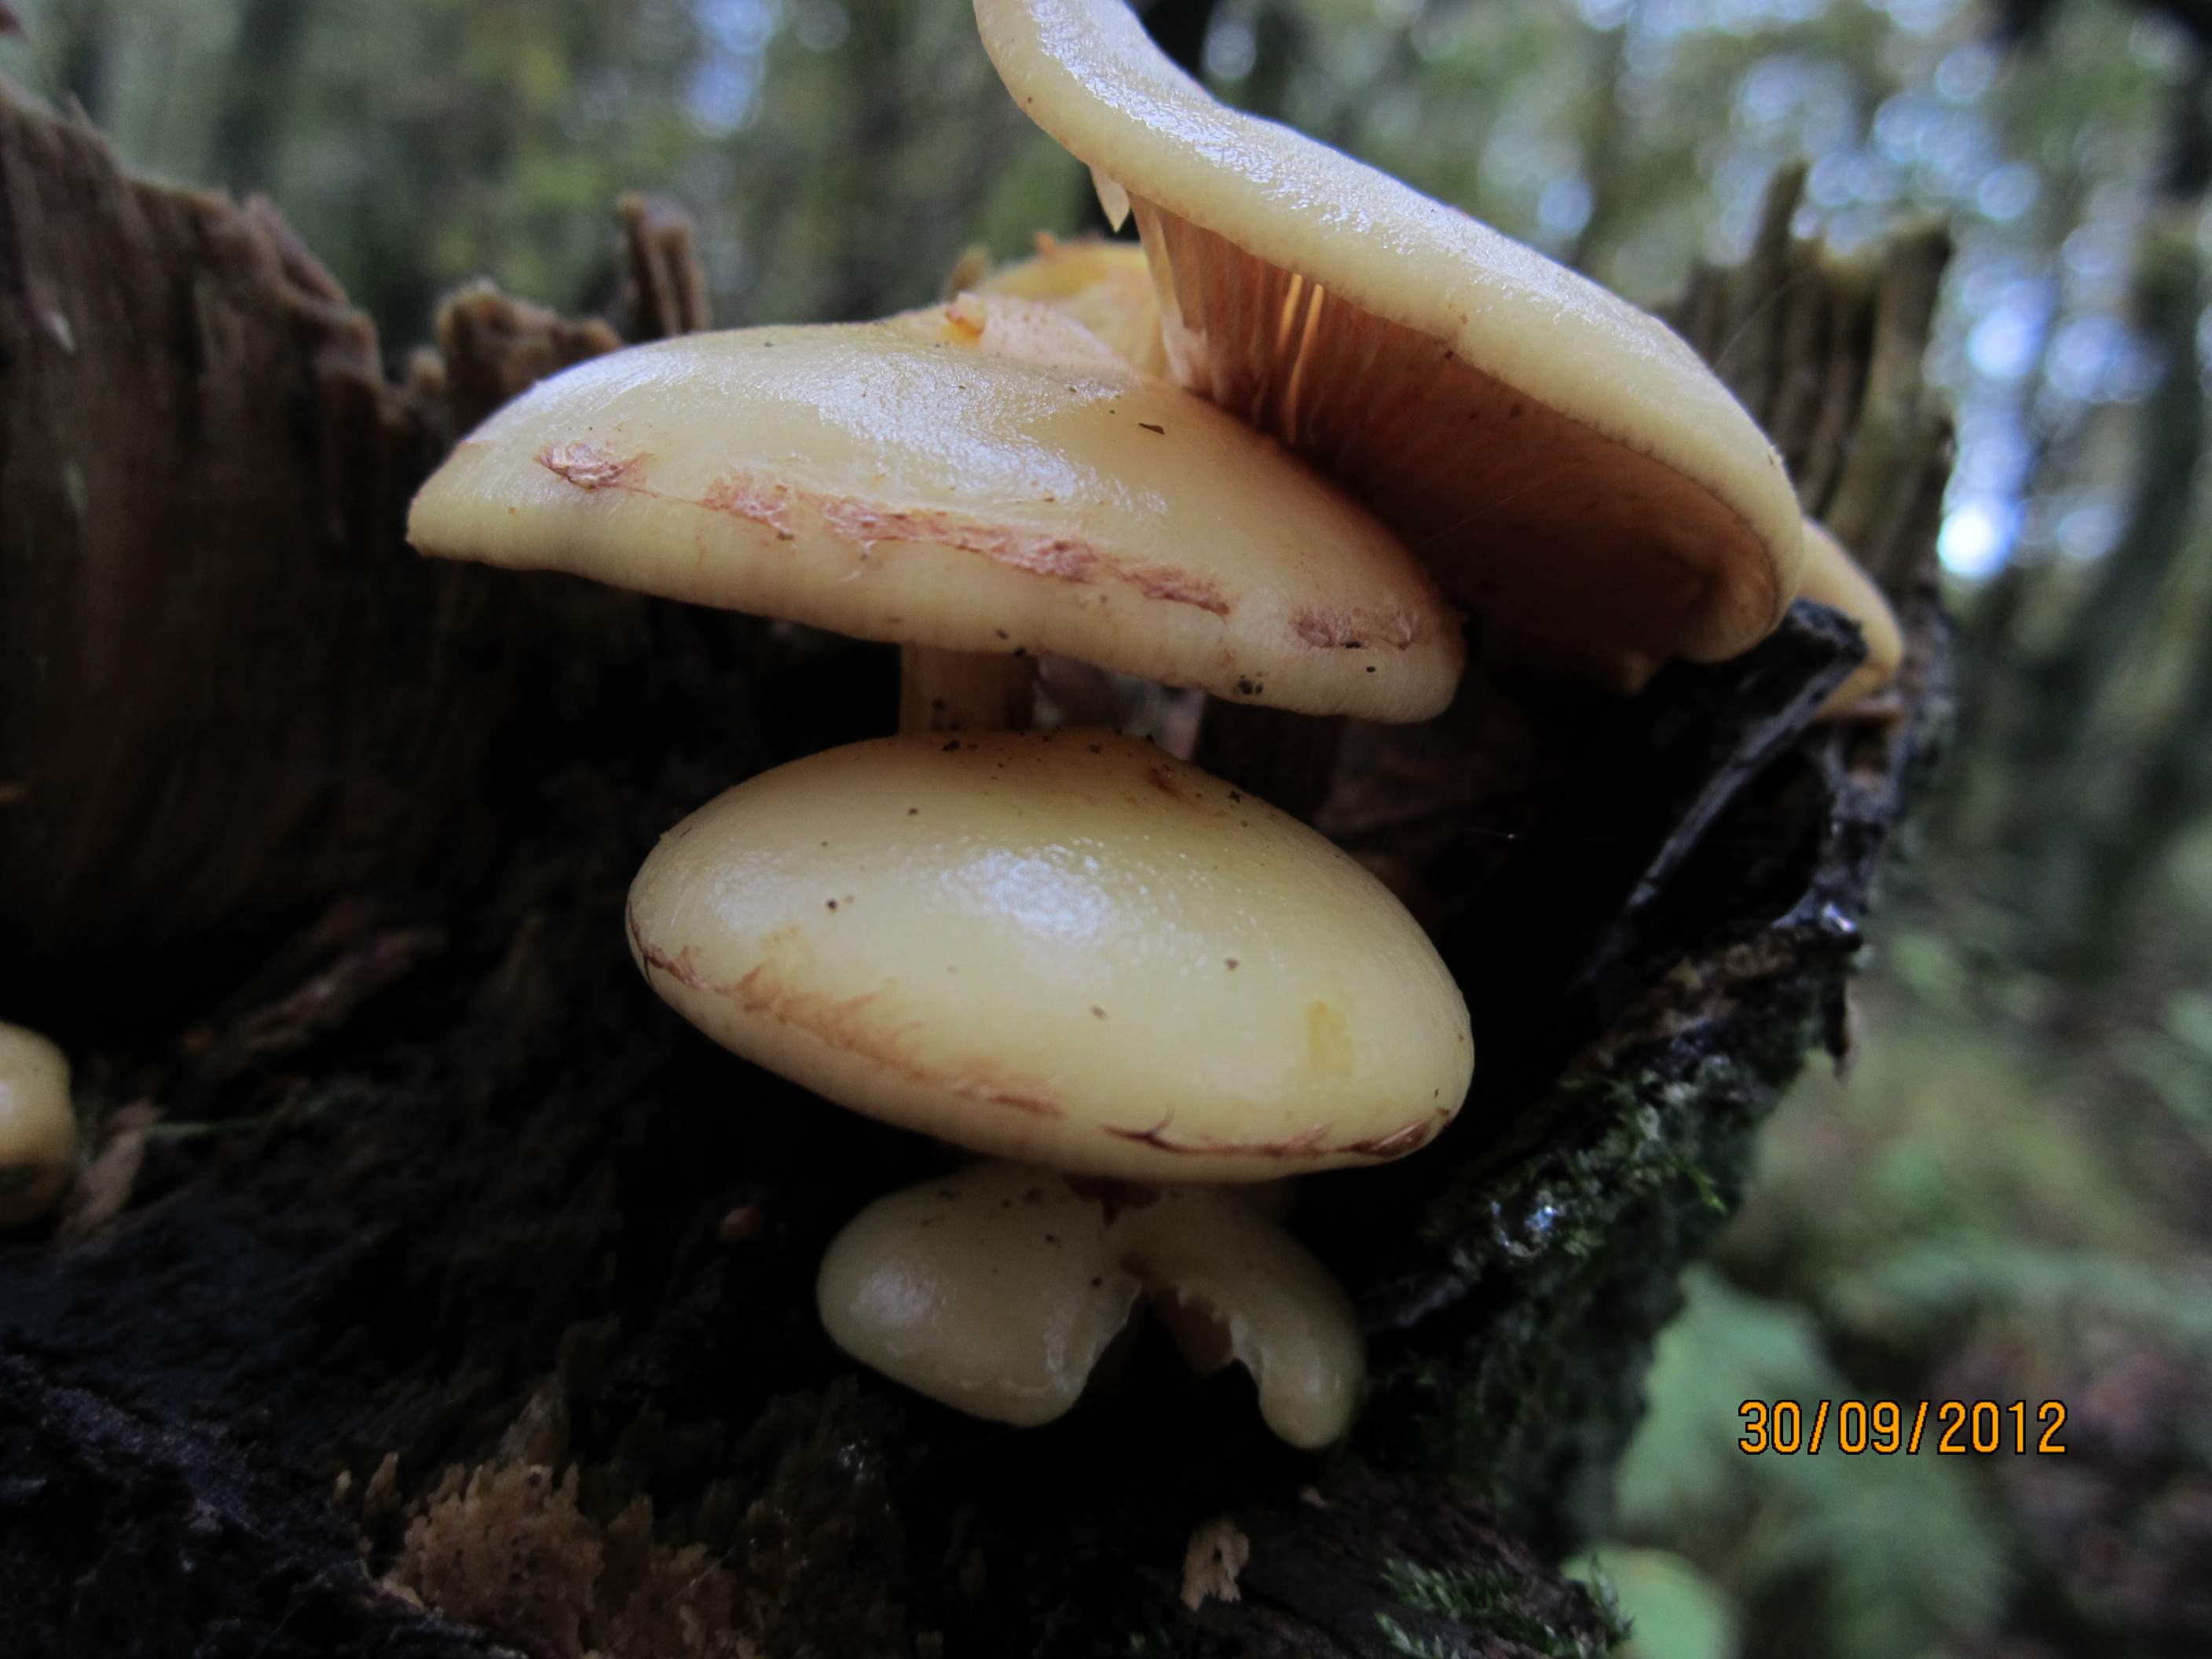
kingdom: Fungi
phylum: Basidiomycota
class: Agaricomycetes
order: Agaricales
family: Hymenogastraceae
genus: Flammula
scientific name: Flammula alnicola
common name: elle-skælhat
